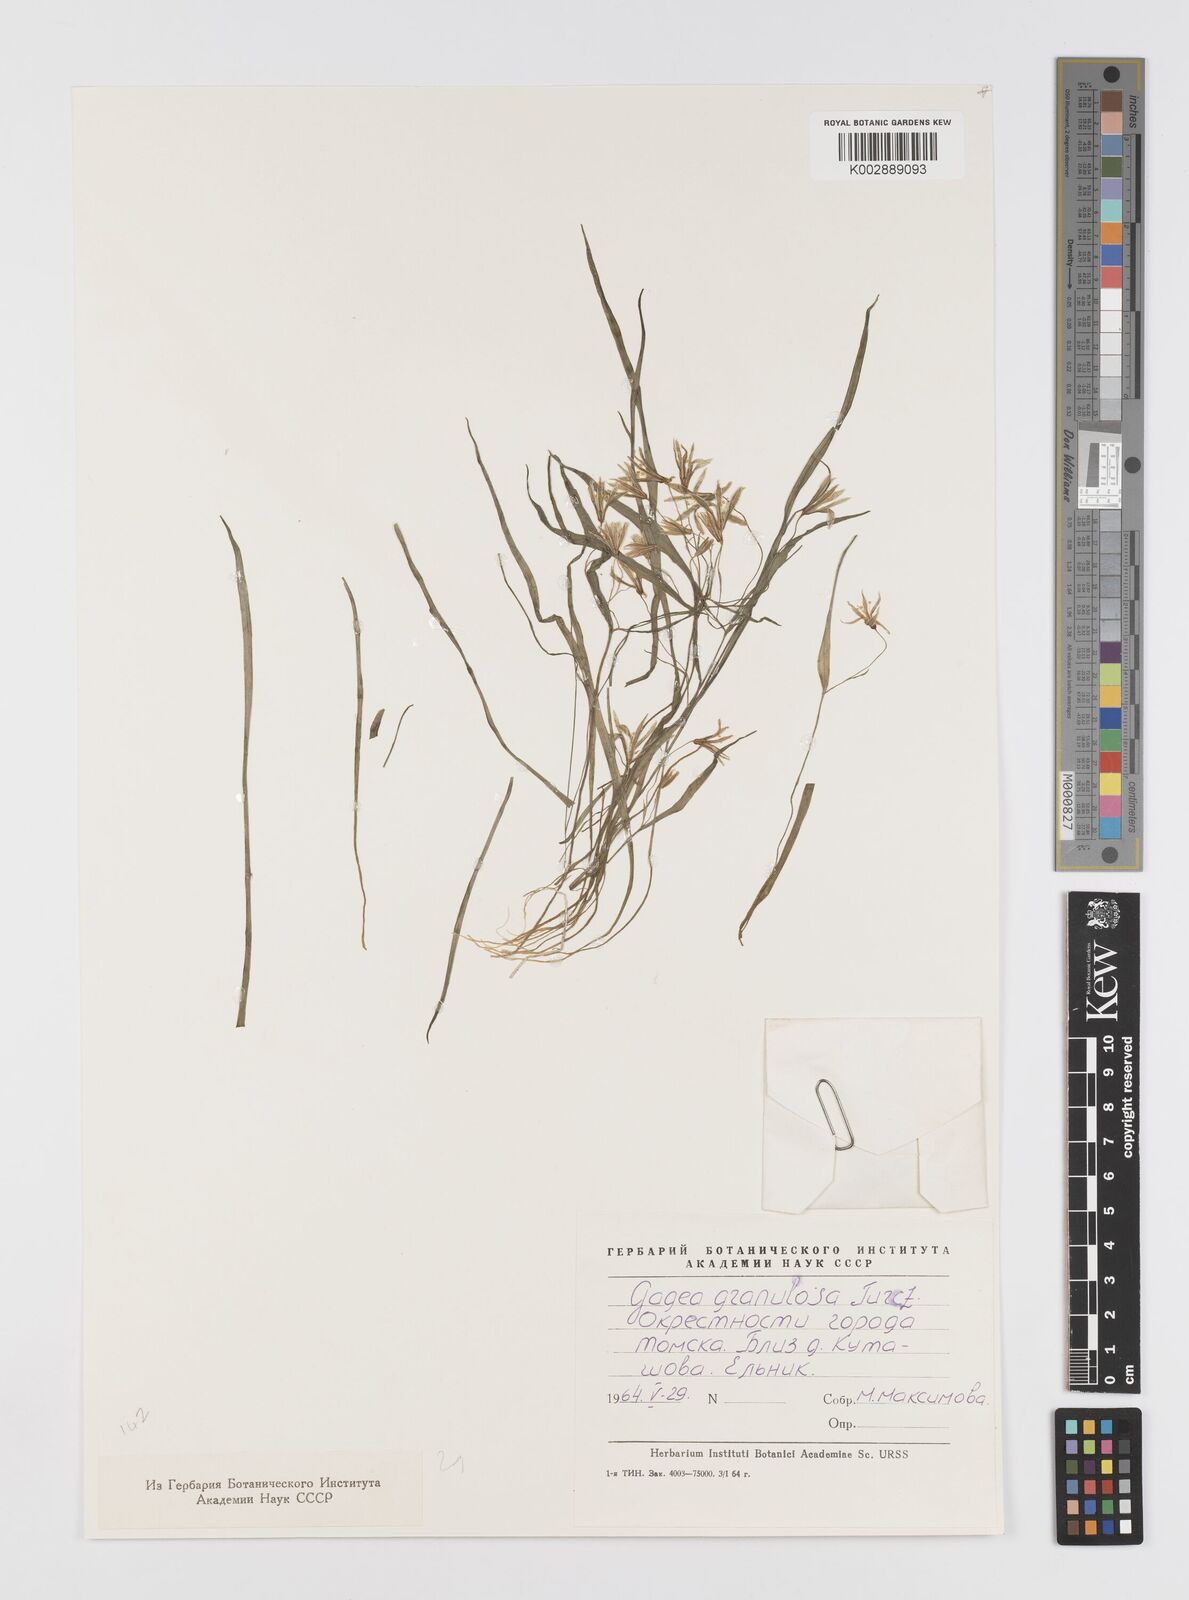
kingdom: Plantae
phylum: Tracheophyta
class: Liliopsida
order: Liliales
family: Liliaceae
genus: Gagea
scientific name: Gagea granulosa
